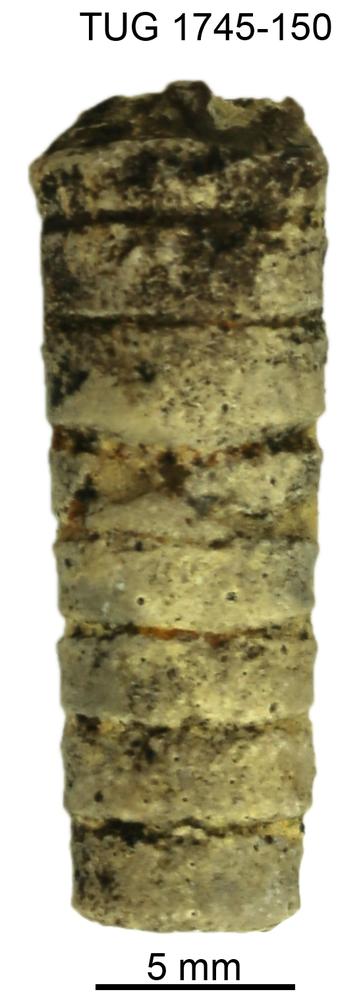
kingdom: Animalia
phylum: Mollusca
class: Cephalopoda
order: Orthocerida
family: Orthoceratidae
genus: Orthoceras
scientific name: Orthoceras
